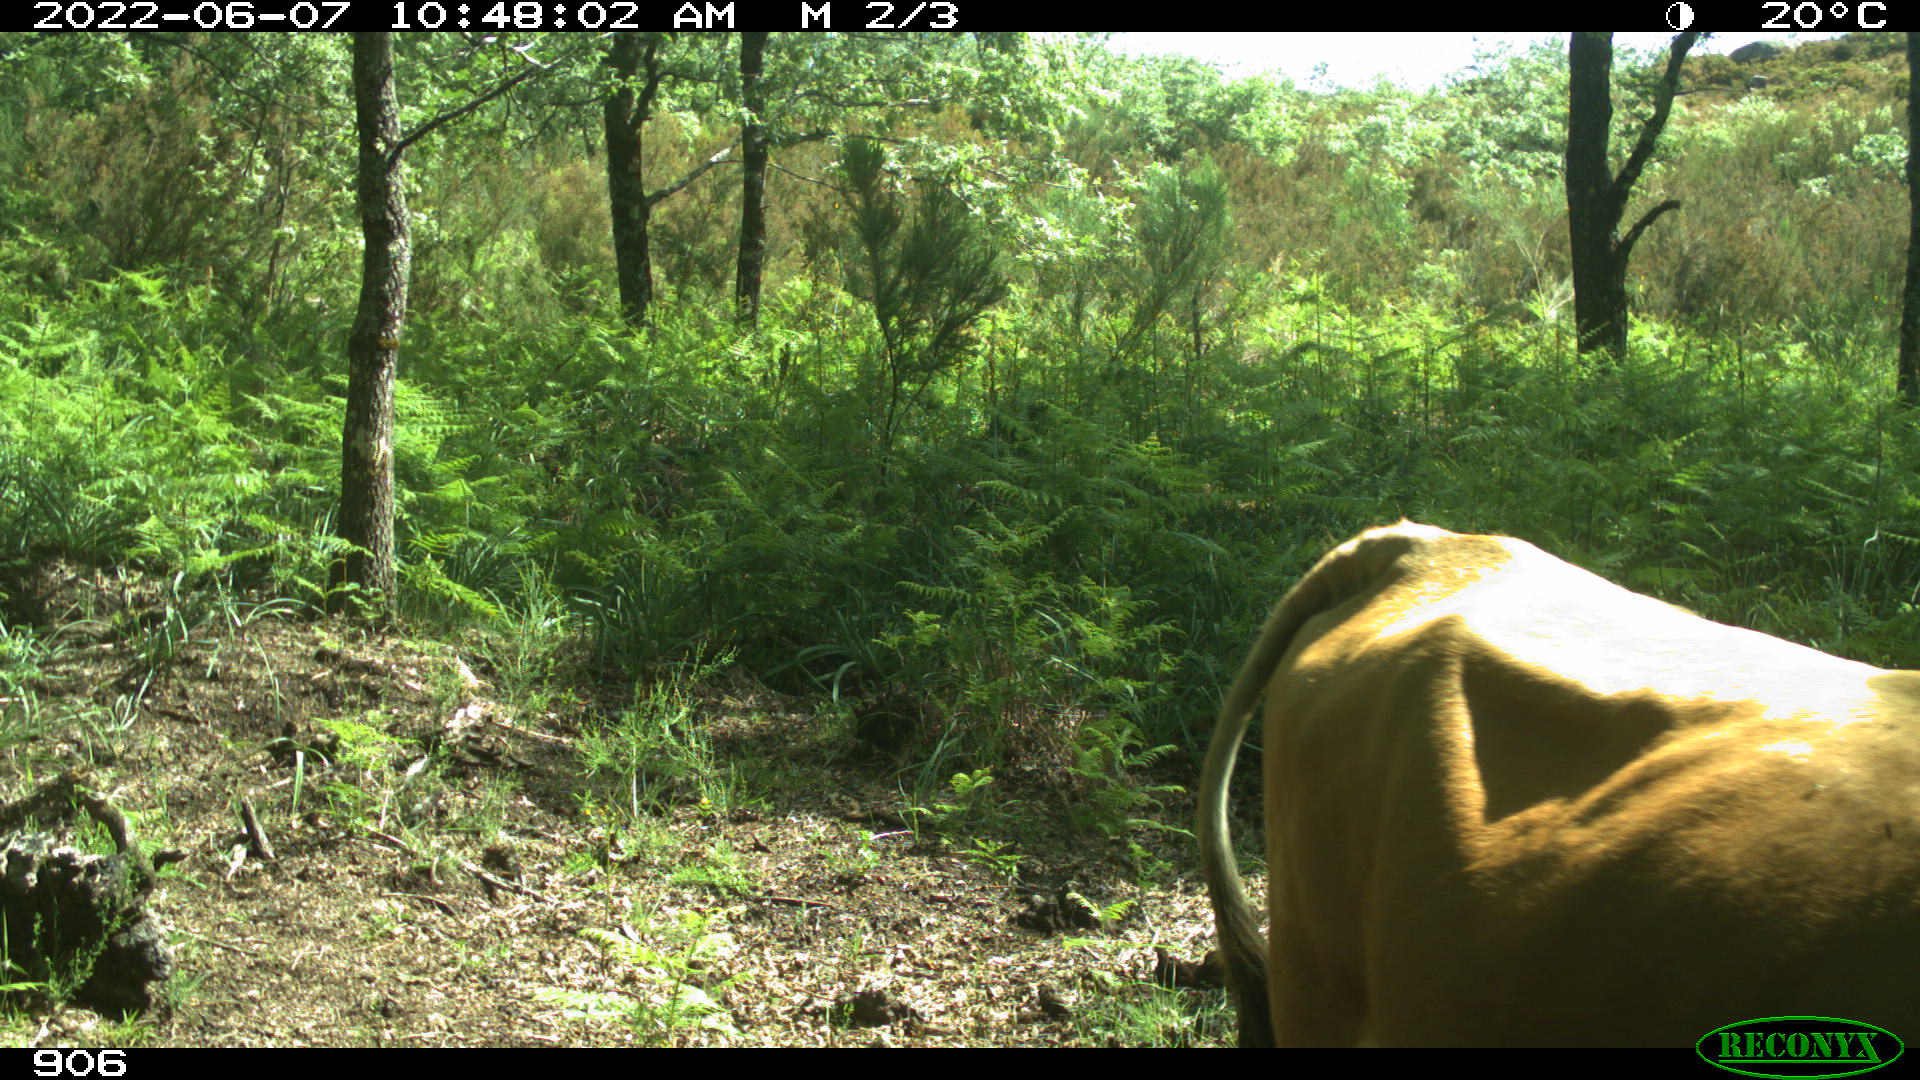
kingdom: Animalia
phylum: Chordata
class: Mammalia
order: Artiodactyla
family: Bovidae
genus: Bos
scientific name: Bos taurus
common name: Domesticated cattle
